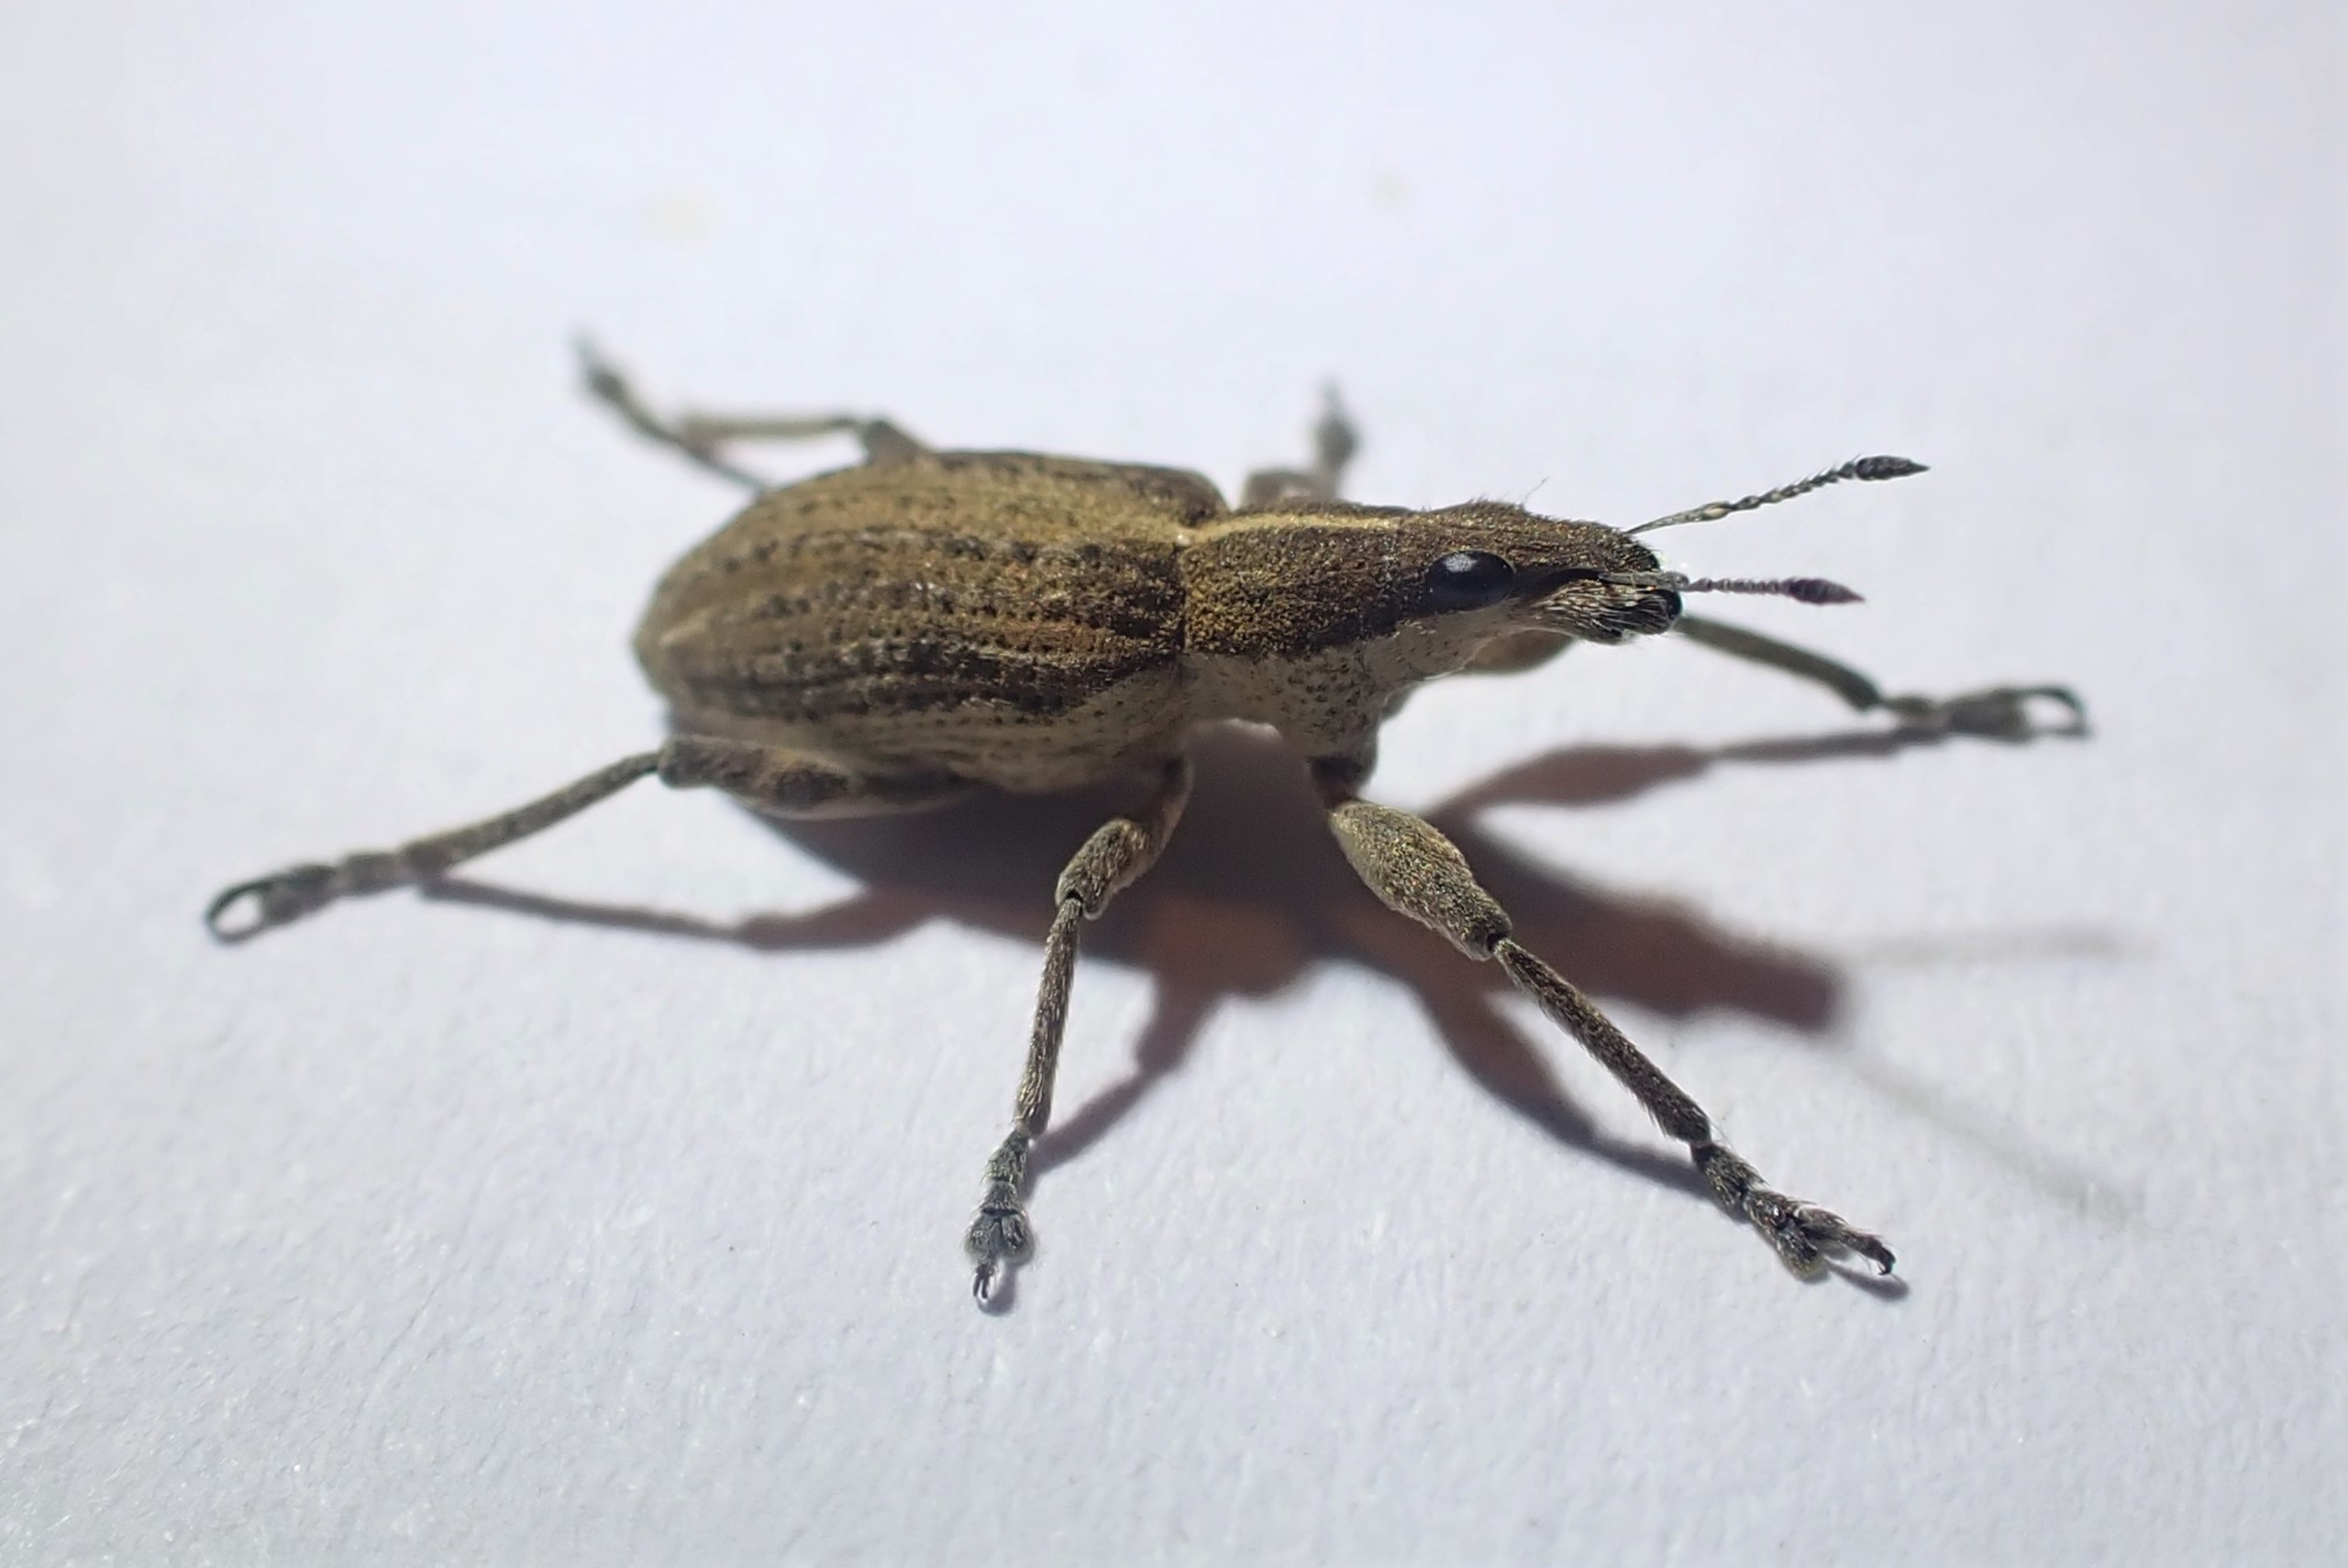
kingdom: Animalia
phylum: Arthropoda
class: Insecta
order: Coleoptera
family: Curculionidae
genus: Charagmus
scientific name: Charagmus gressorius
